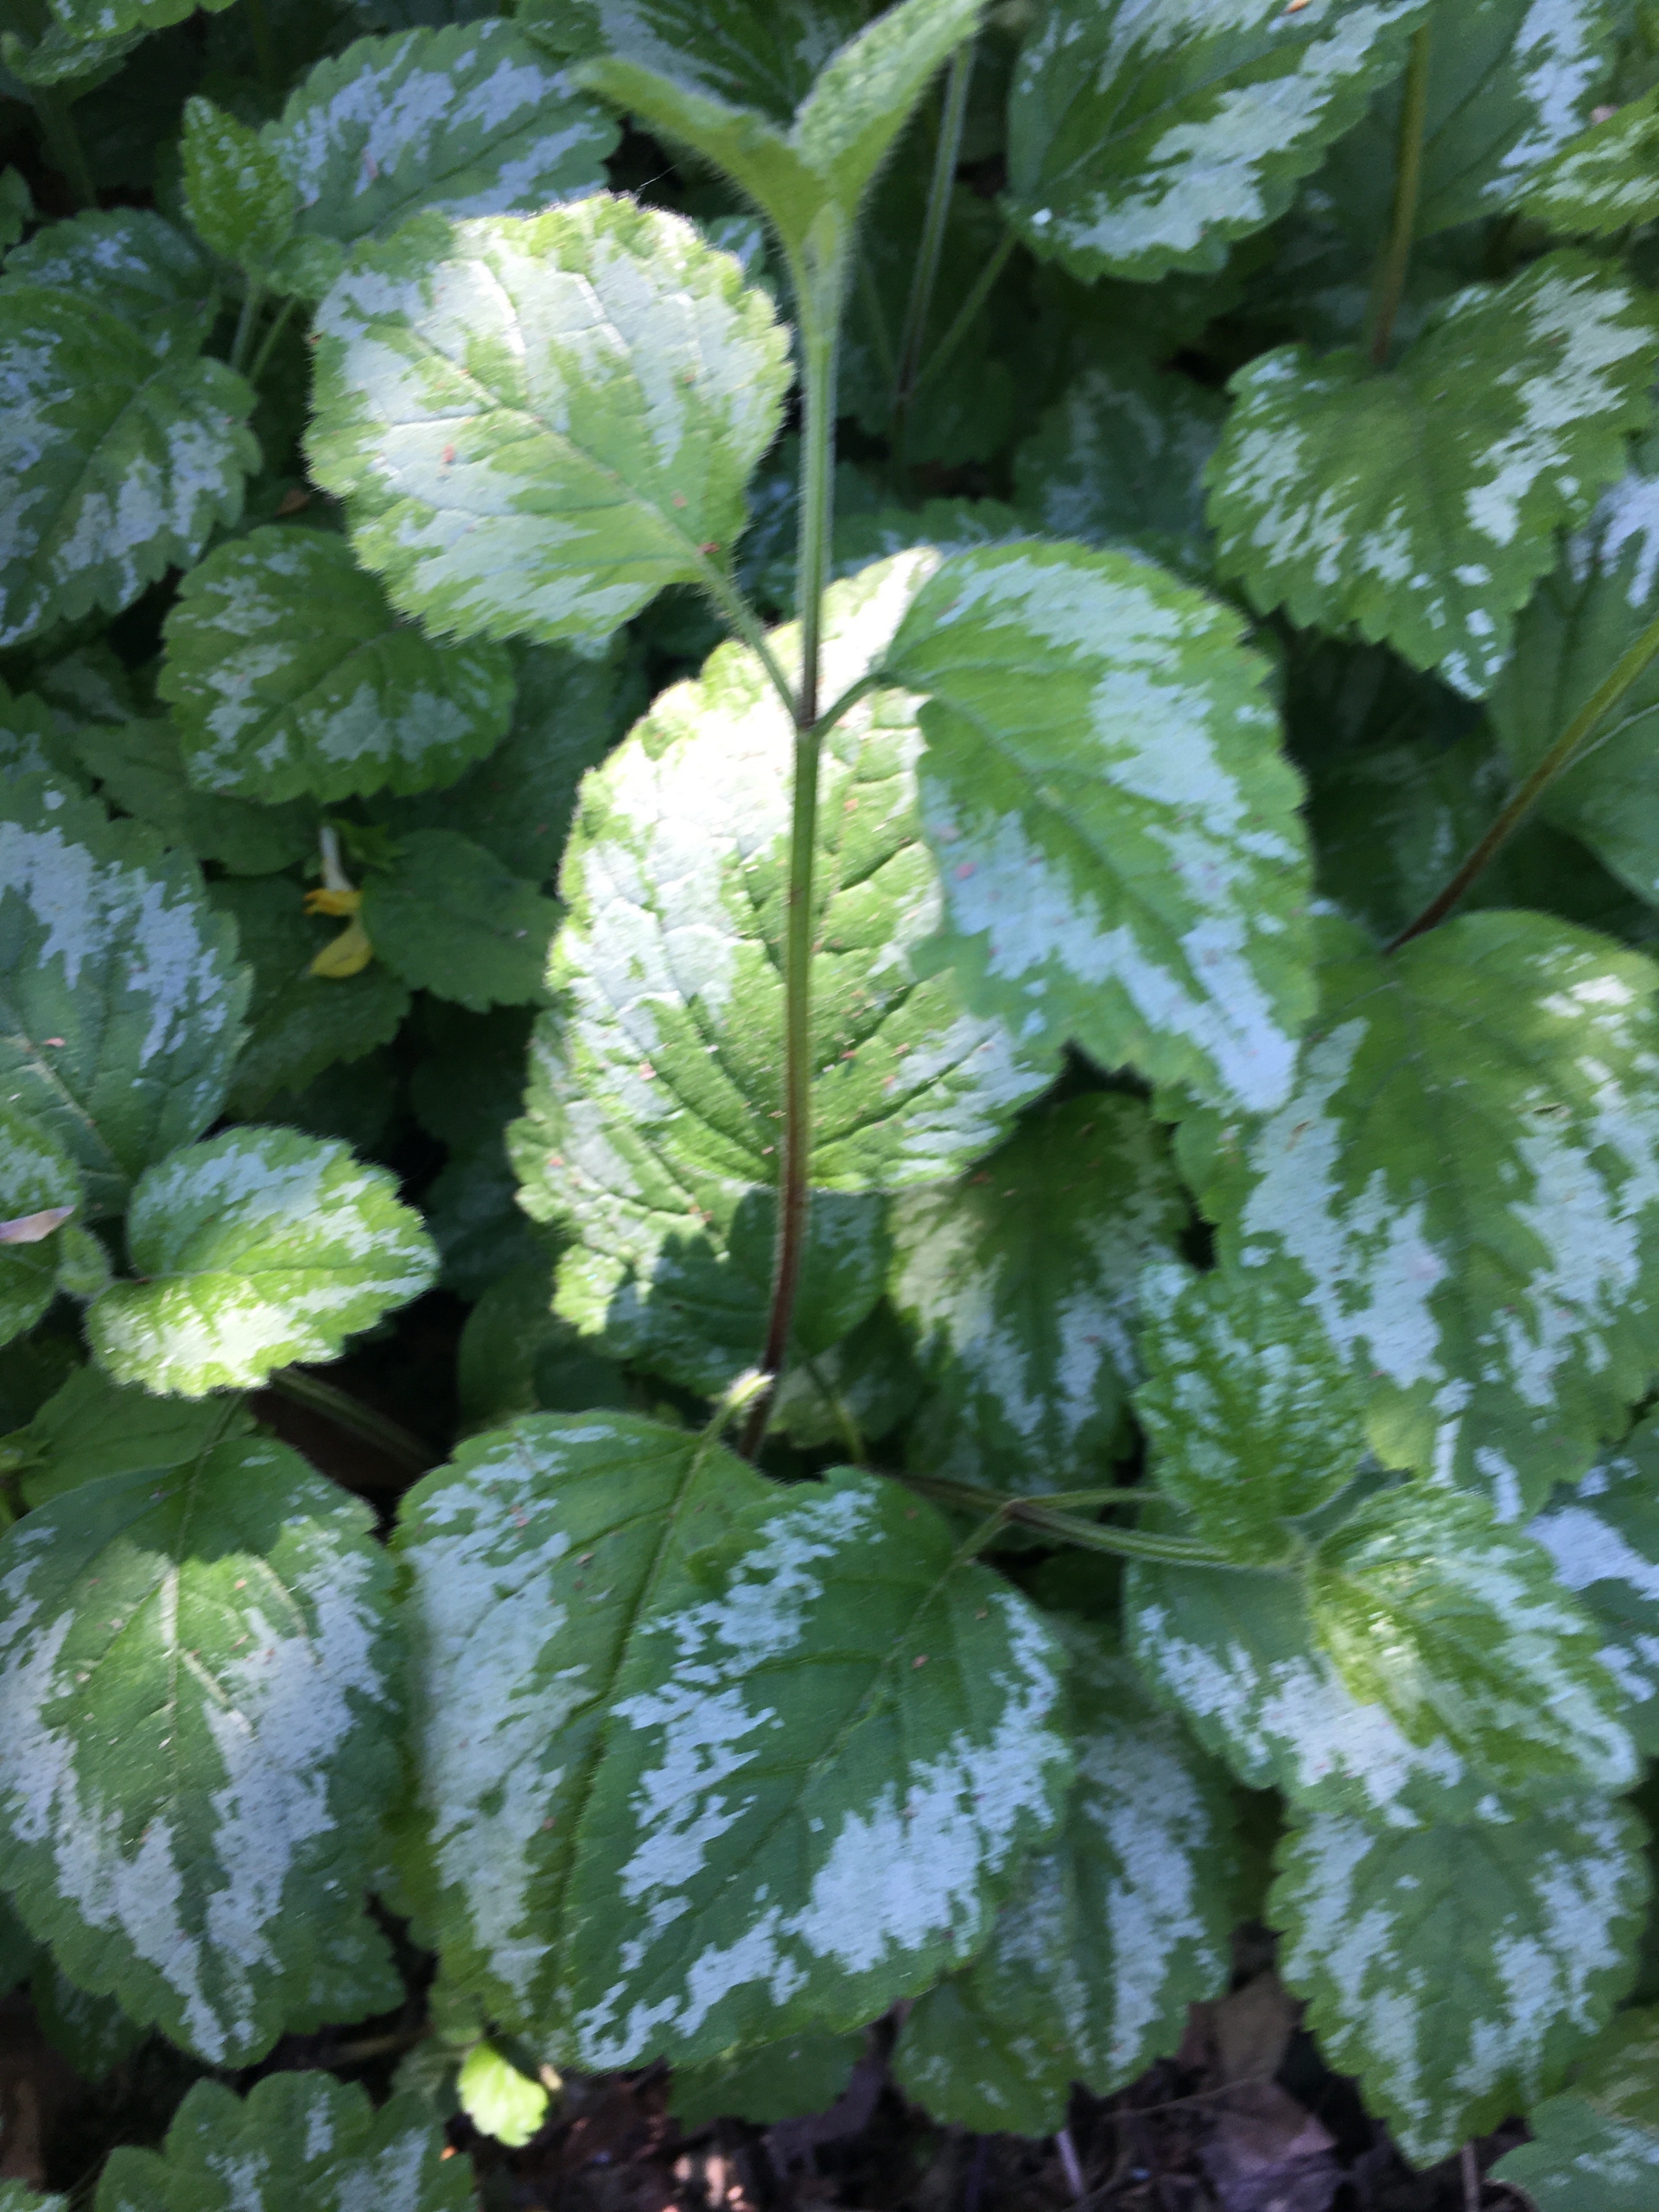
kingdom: Plantae
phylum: Tracheophyta
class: Magnoliopsida
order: Lamiales
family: Lamiaceae
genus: Lamium
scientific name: Lamium galeobdolon
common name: Have-guldnælde
